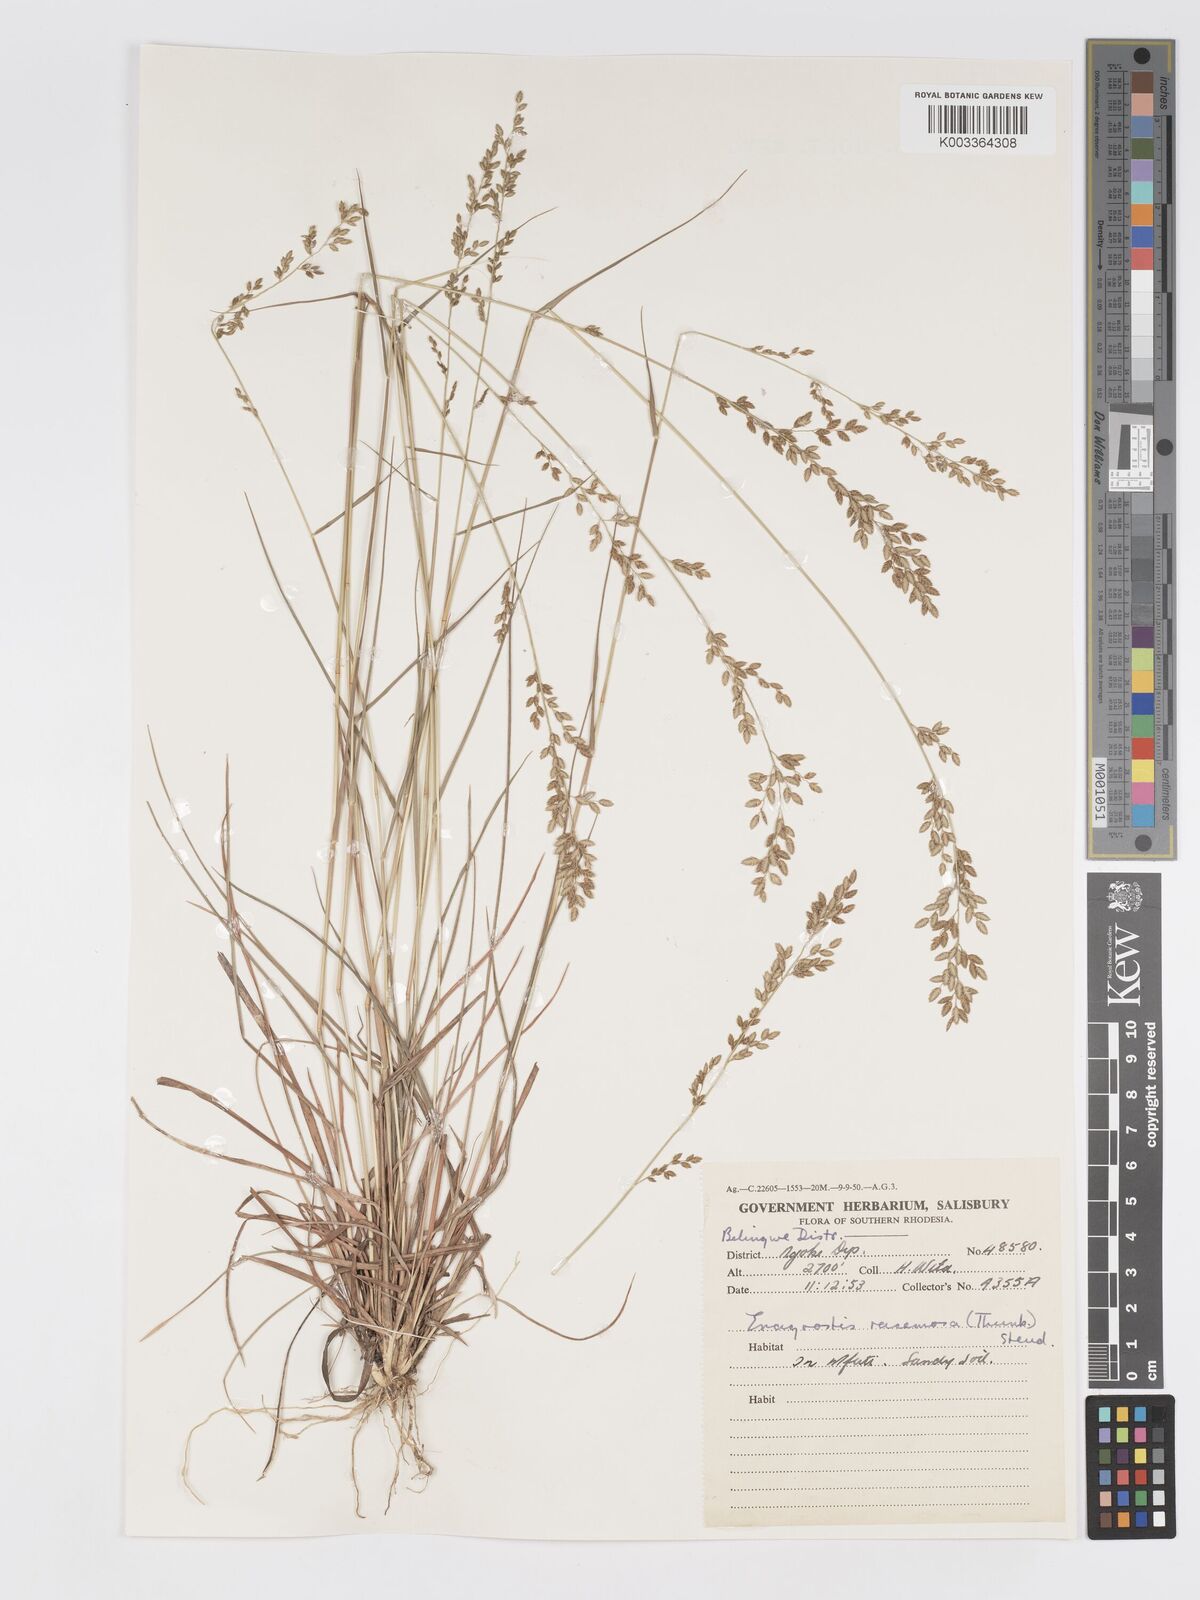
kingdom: Plantae
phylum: Tracheophyta
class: Liliopsida
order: Poales
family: Poaceae
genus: Eragrostis
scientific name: Eragrostis racemosa
